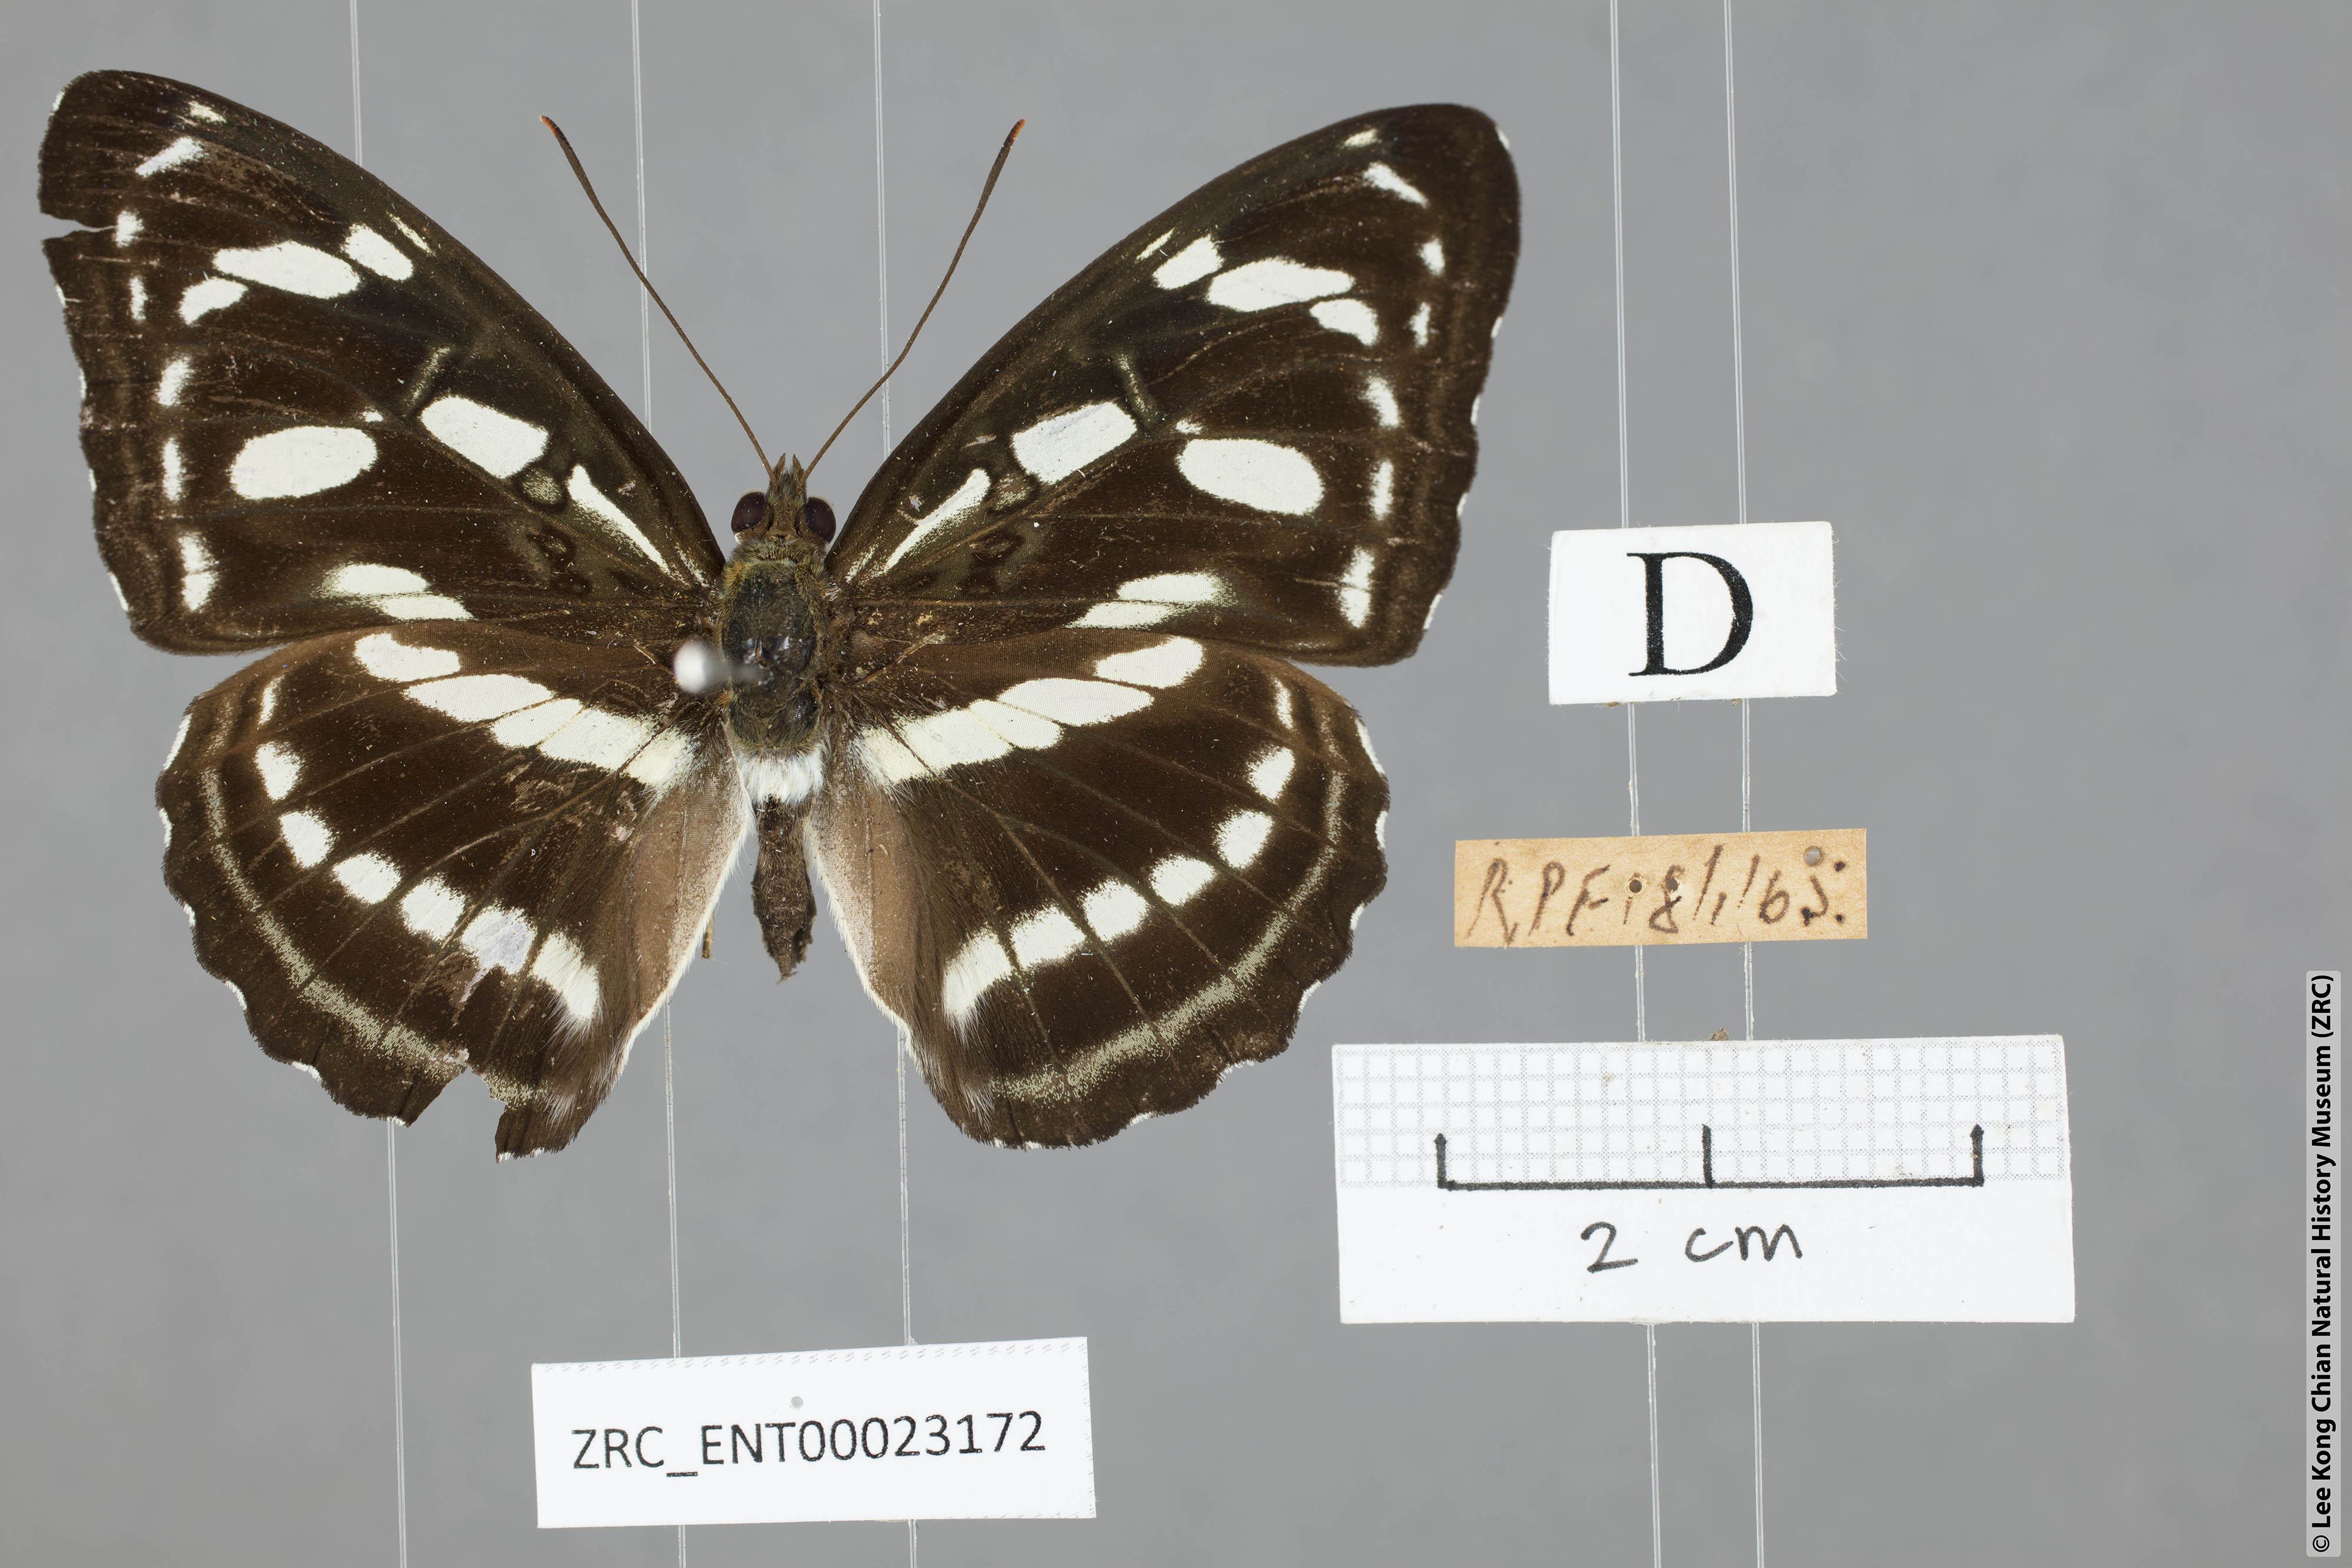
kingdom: Animalia
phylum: Arthropoda
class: Insecta
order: Lepidoptera
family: Nymphalidae
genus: Parathyma
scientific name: Parathyma abiasa
